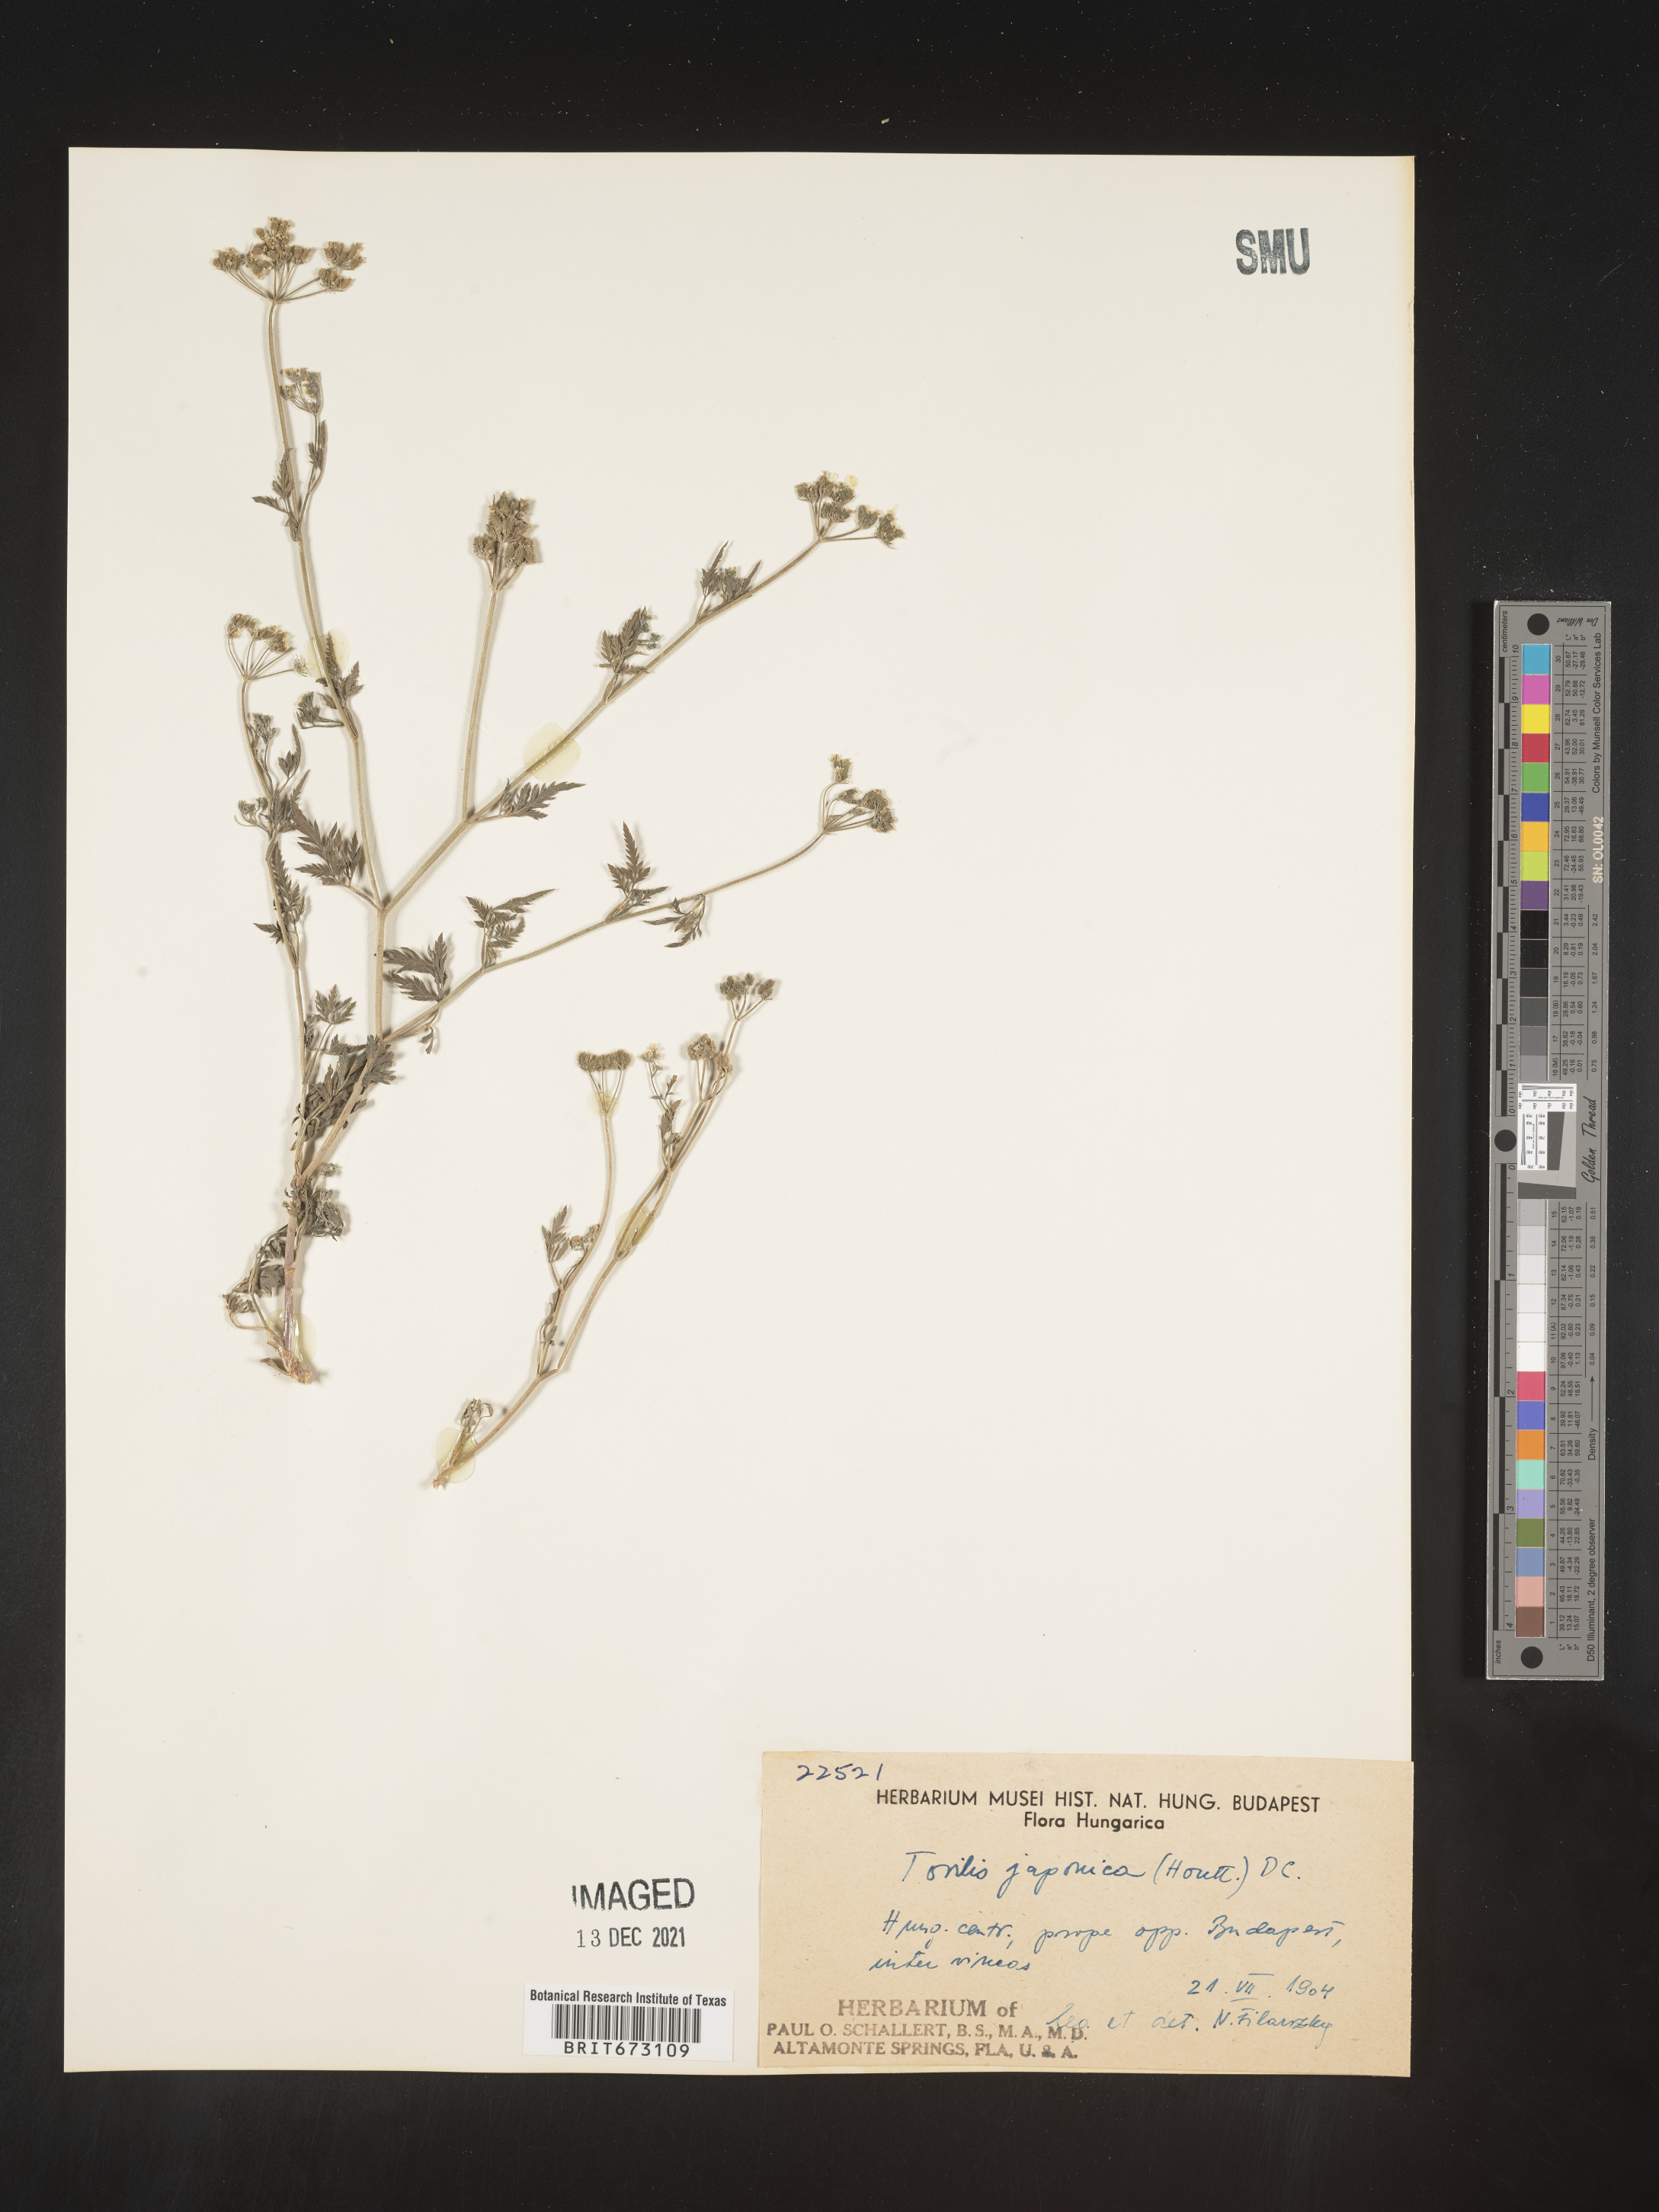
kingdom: Plantae
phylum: Tracheophyta
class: Magnoliopsida
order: Apiales
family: Apiaceae
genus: Torilis
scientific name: Torilis
